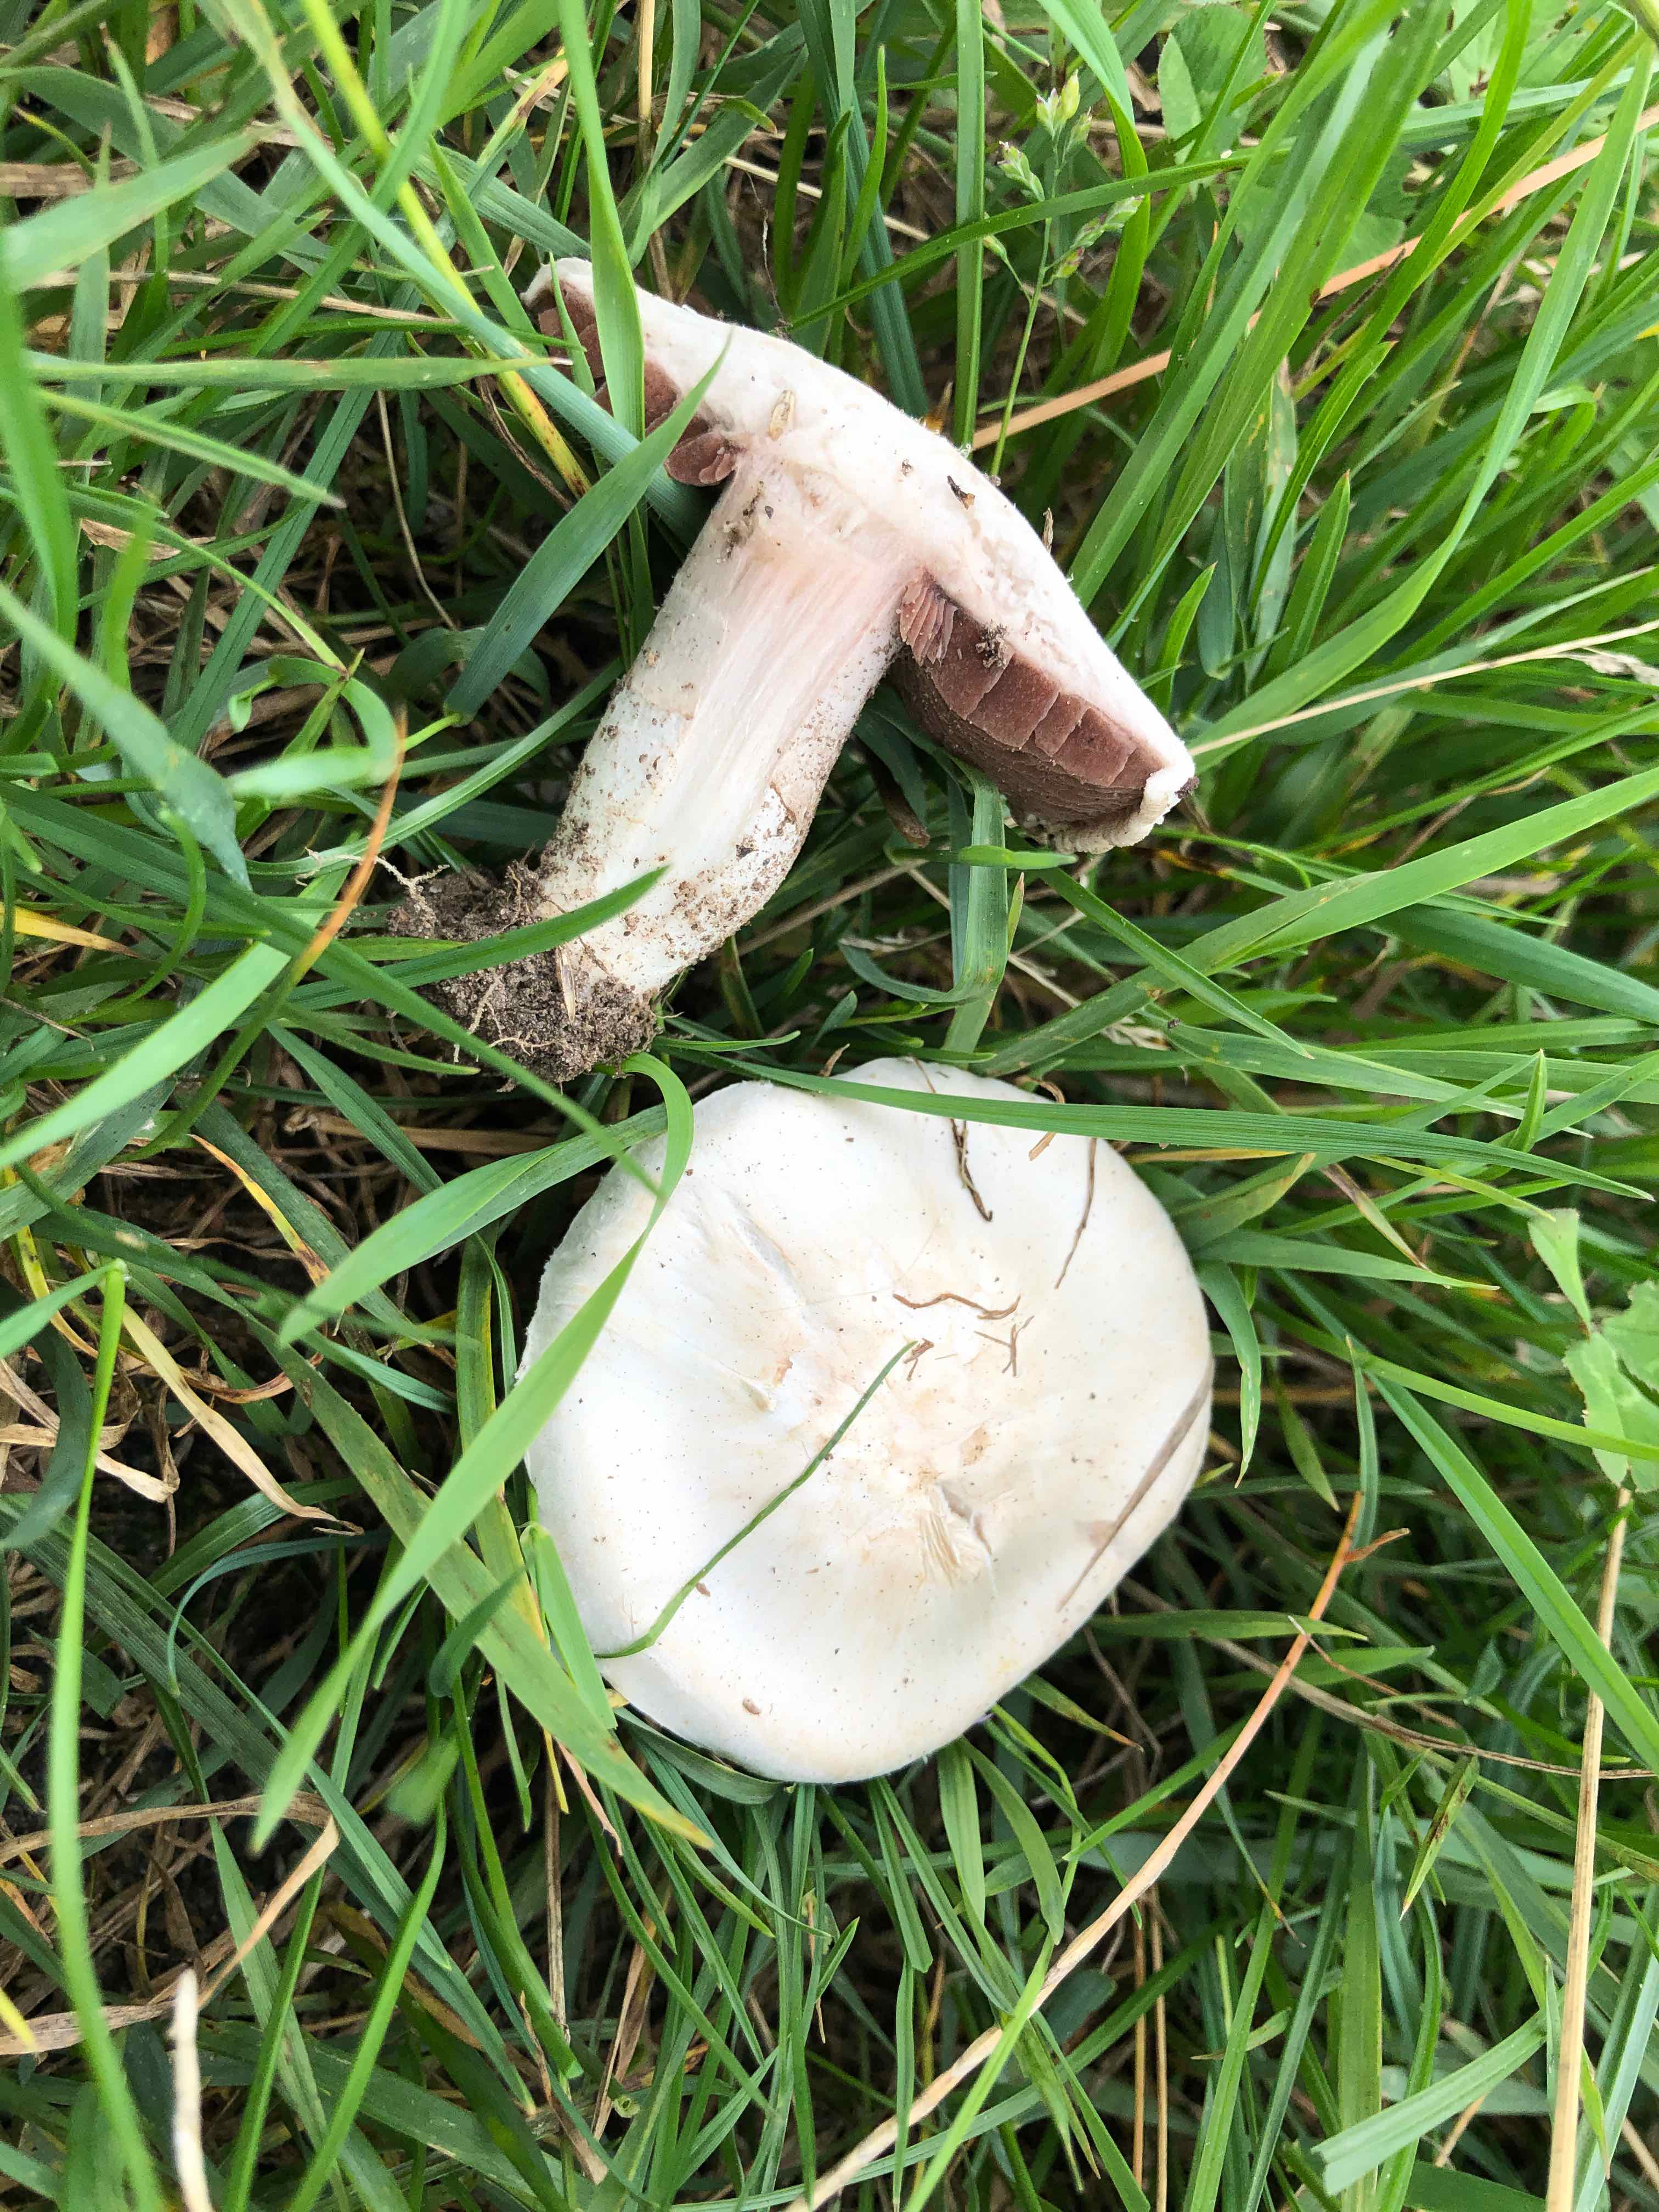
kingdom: Fungi
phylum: Basidiomycota
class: Agaricomycetes
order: Agaricales
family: Agaricaceae
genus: Agaricus
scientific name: Agaricus
